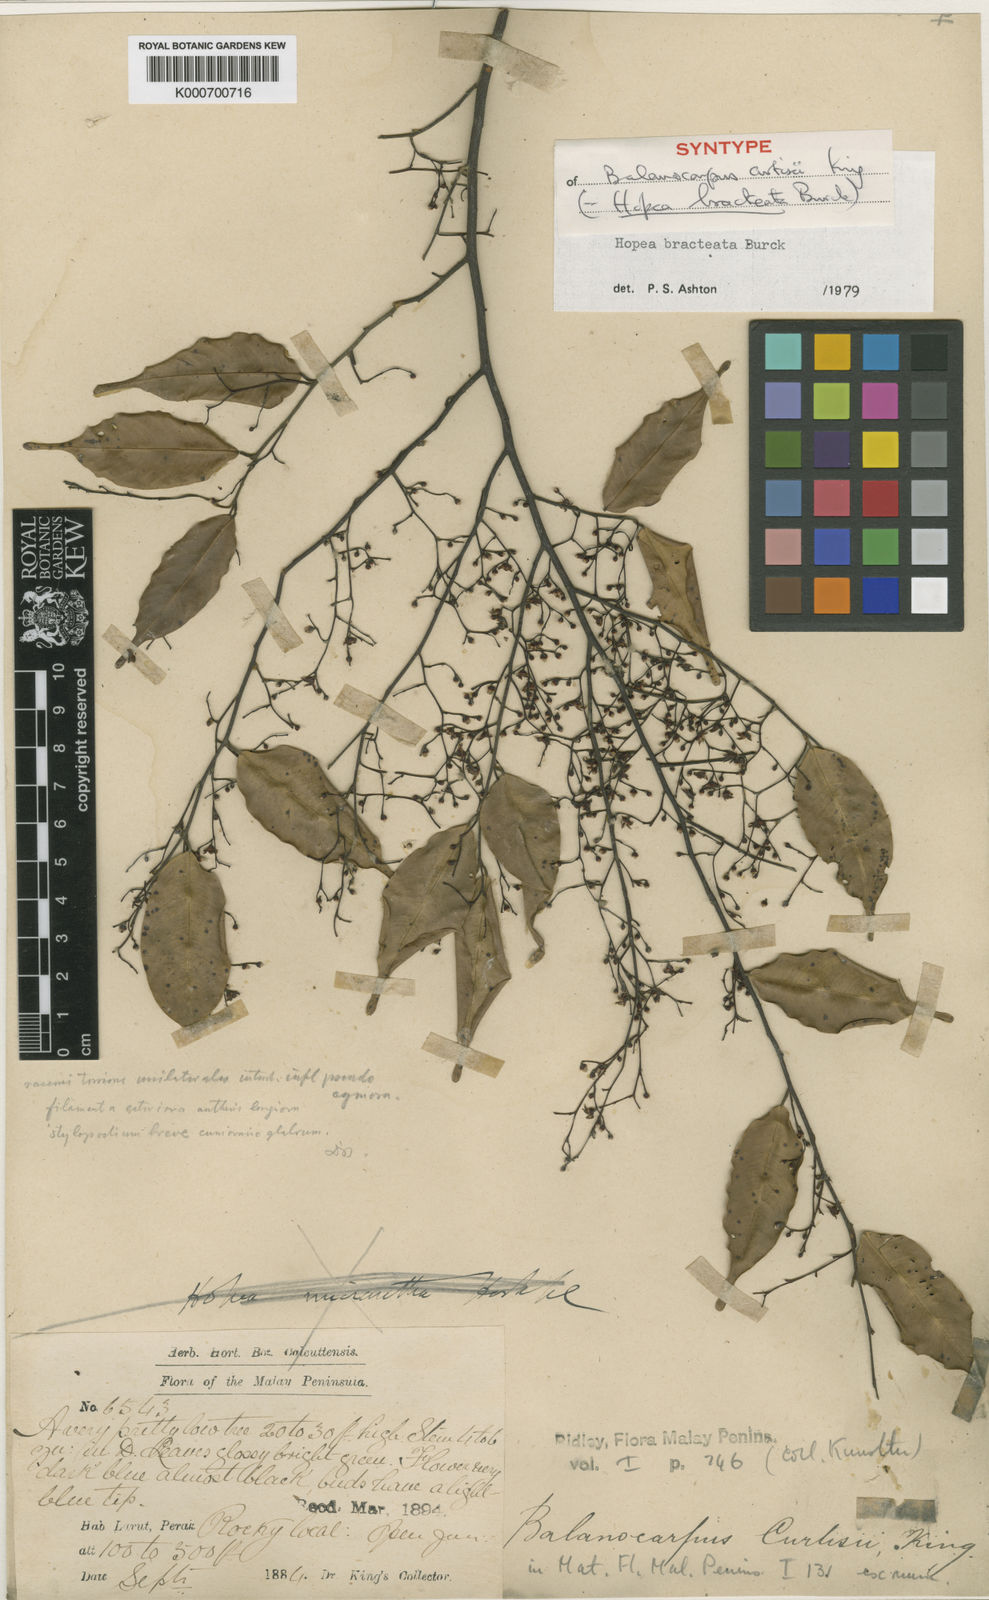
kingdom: Plantae
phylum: Tracheophyta
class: Magnoliopsida
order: Malvales
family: Dipterocarpaceae
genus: Hopea
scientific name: Hopea bracteata
